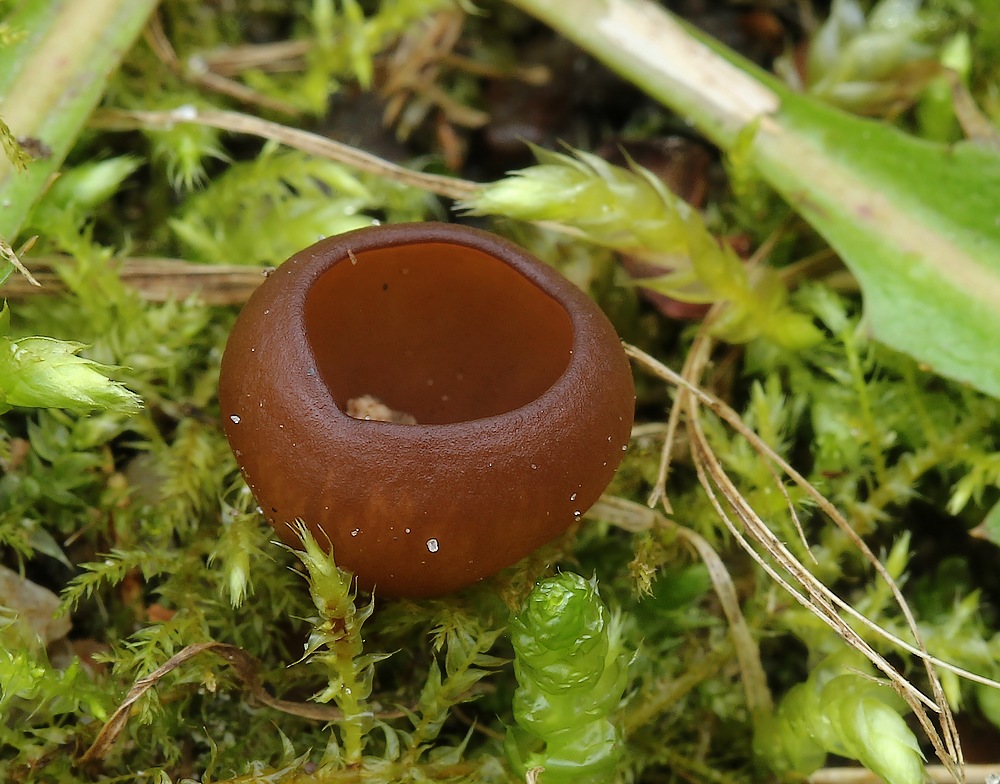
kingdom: Fungi
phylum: Ascomycota
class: Leotiomycetes
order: Helotiales
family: Sclerotiniaceae
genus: Dumontinia
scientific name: Dumontinia tuberosa
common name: anemone-knoldskive
